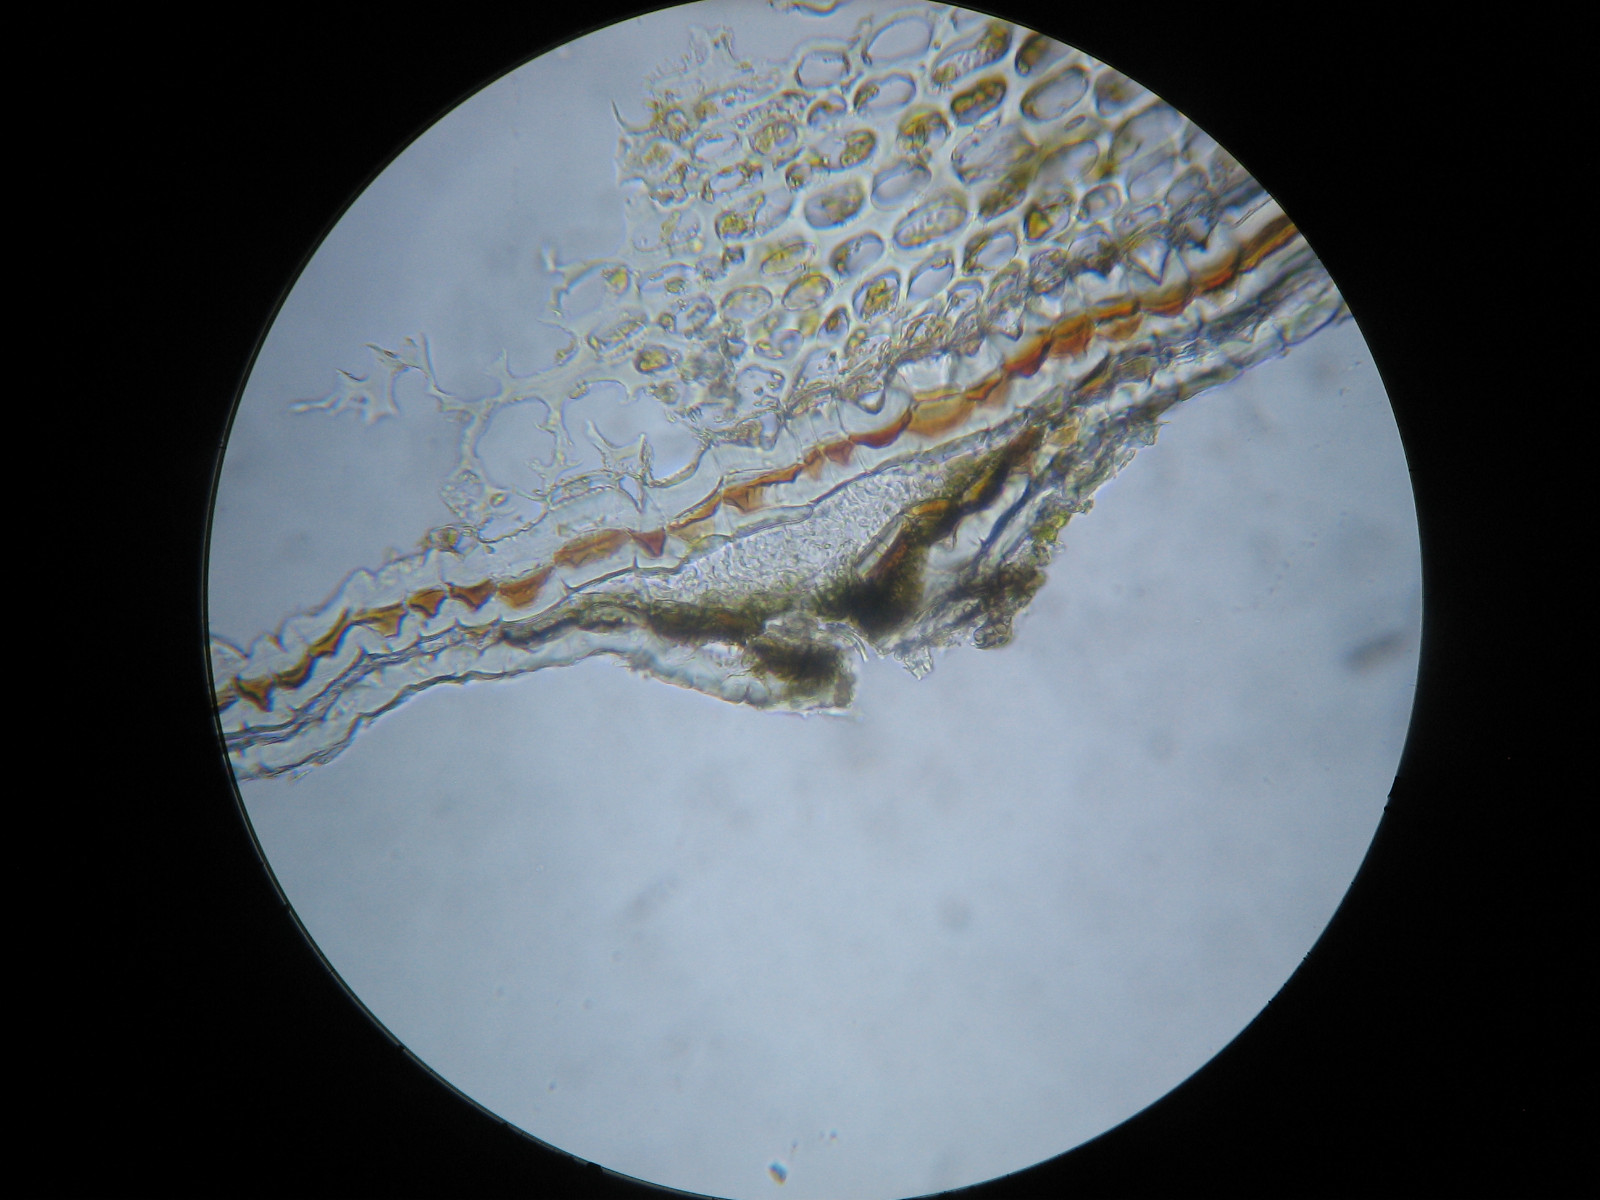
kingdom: Fungi
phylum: Ascomycota
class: Dothideomycetes
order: Pleosporales
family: Naetrocymbaceae
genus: Naetrocymbe
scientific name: Naetrocymbe punctiformis
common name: punkt-arthopyrenia
